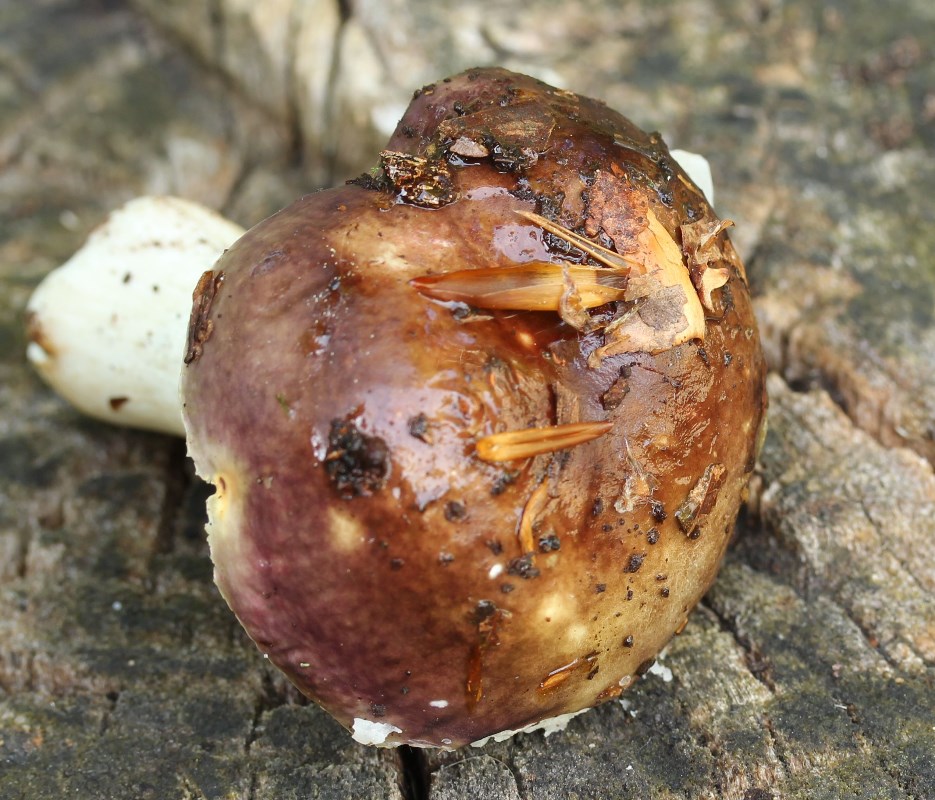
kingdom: Fungi
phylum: Basidiomycota
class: Agaricomycetes
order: Russulales
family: Russulaceae
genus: Russula
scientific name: Russula
